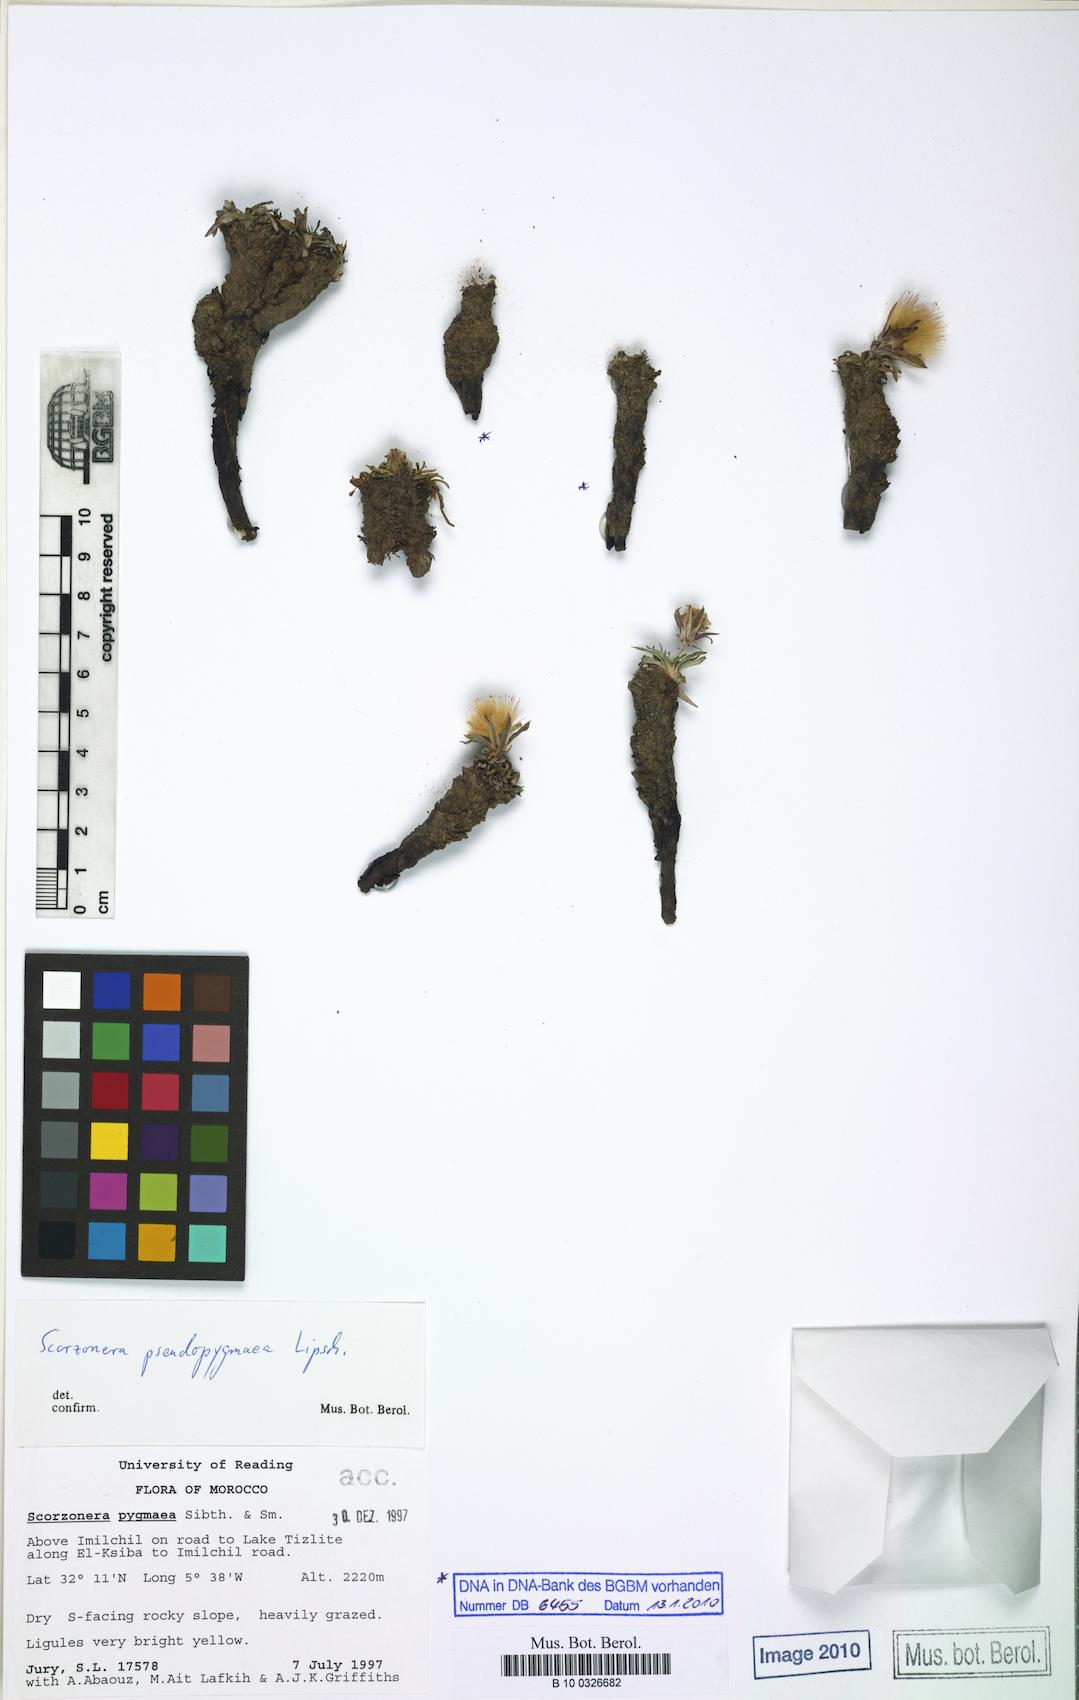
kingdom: Plantae
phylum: Tracheophyta
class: Magnoliopsida
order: Asterales
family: Asteraceae
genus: Gelasia
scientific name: Gelasia caespitosa
